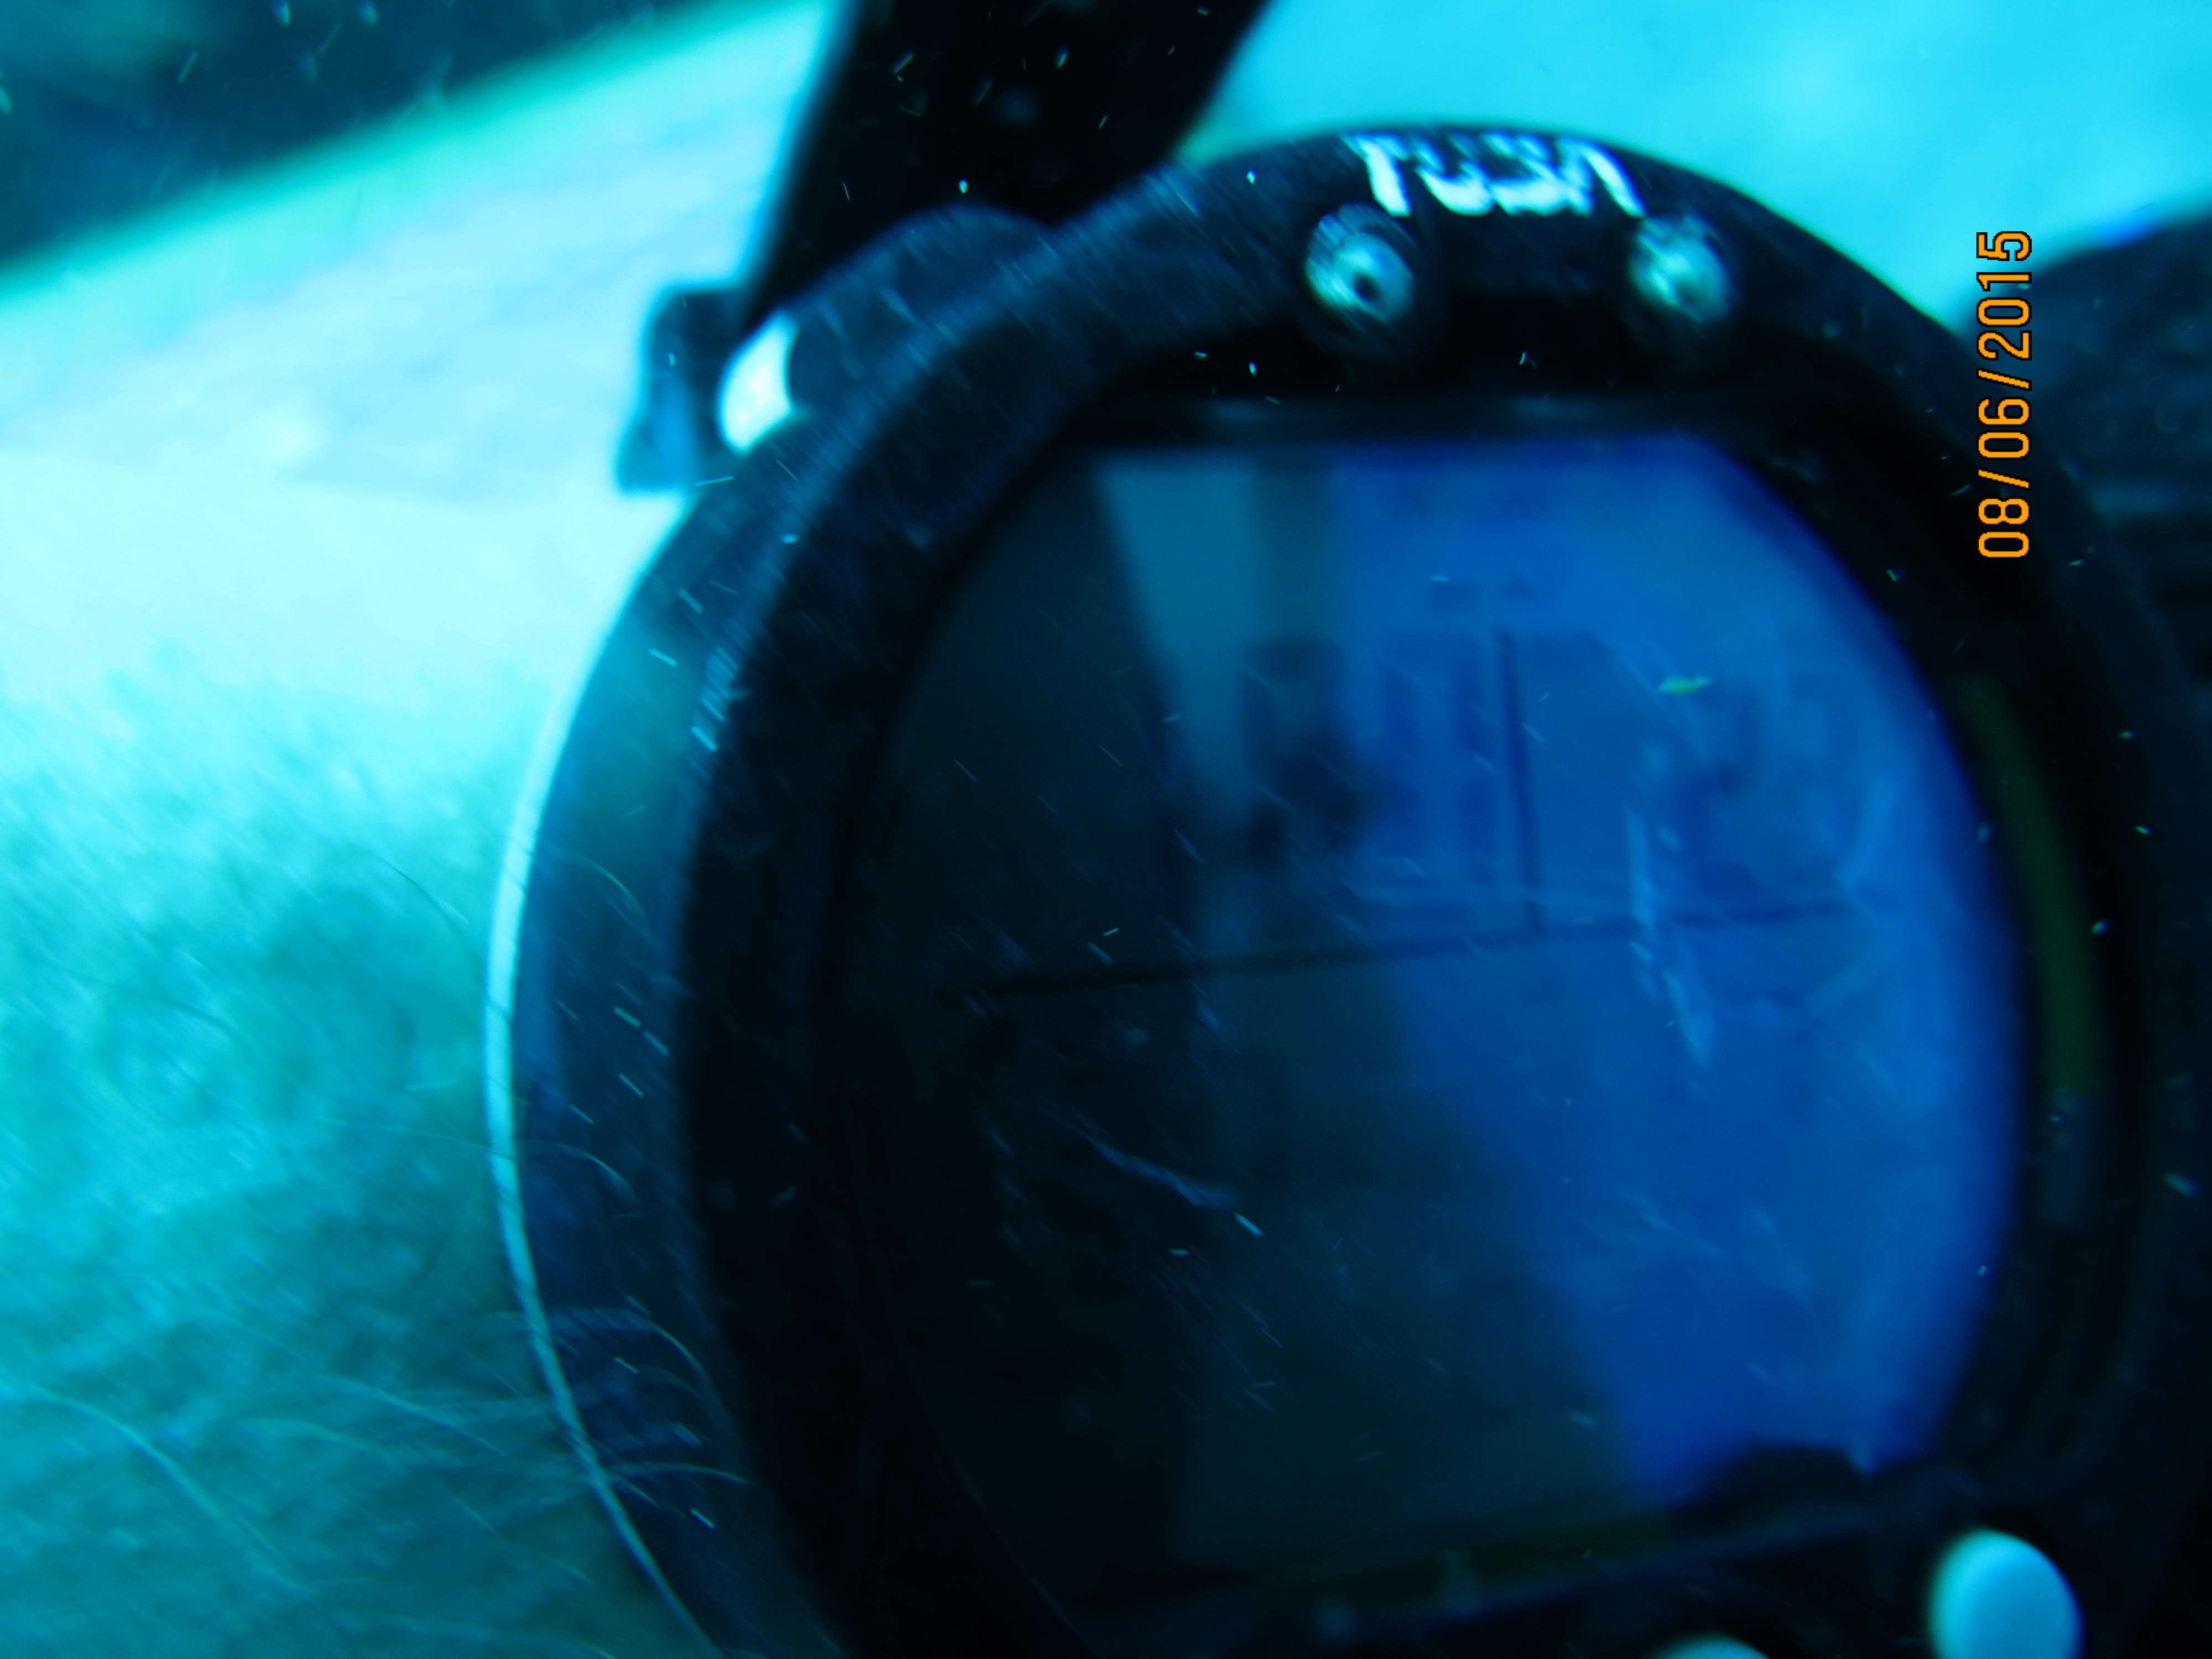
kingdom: Animalia
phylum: Porifera
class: Demospongiae
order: Poecilosclerida
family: Iotrochotidae
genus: Iotrochota
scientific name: Iotrochota birotulata
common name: Purple bleeding sponge
